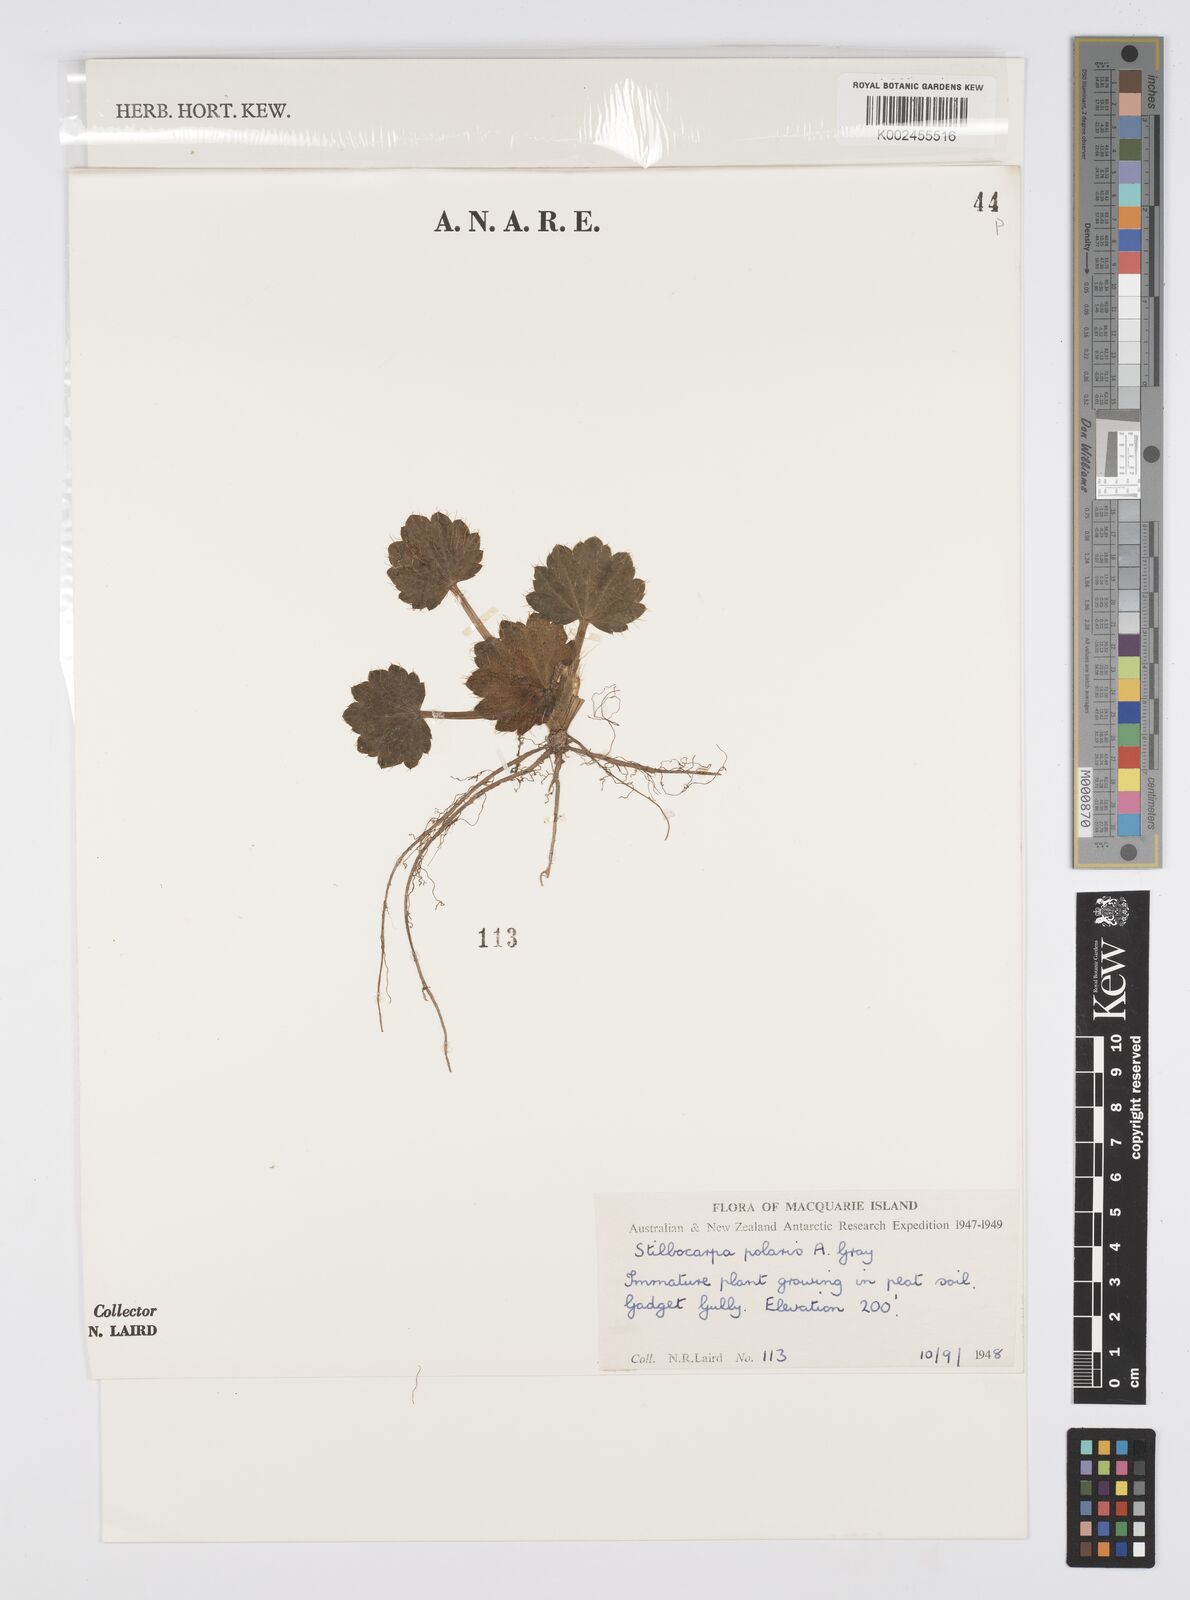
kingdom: Plantae
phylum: Tracheophyta
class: Magnoliopsida
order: Apiales
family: Araliaceae
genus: Stilbocarpa
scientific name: Stilbocarpa
